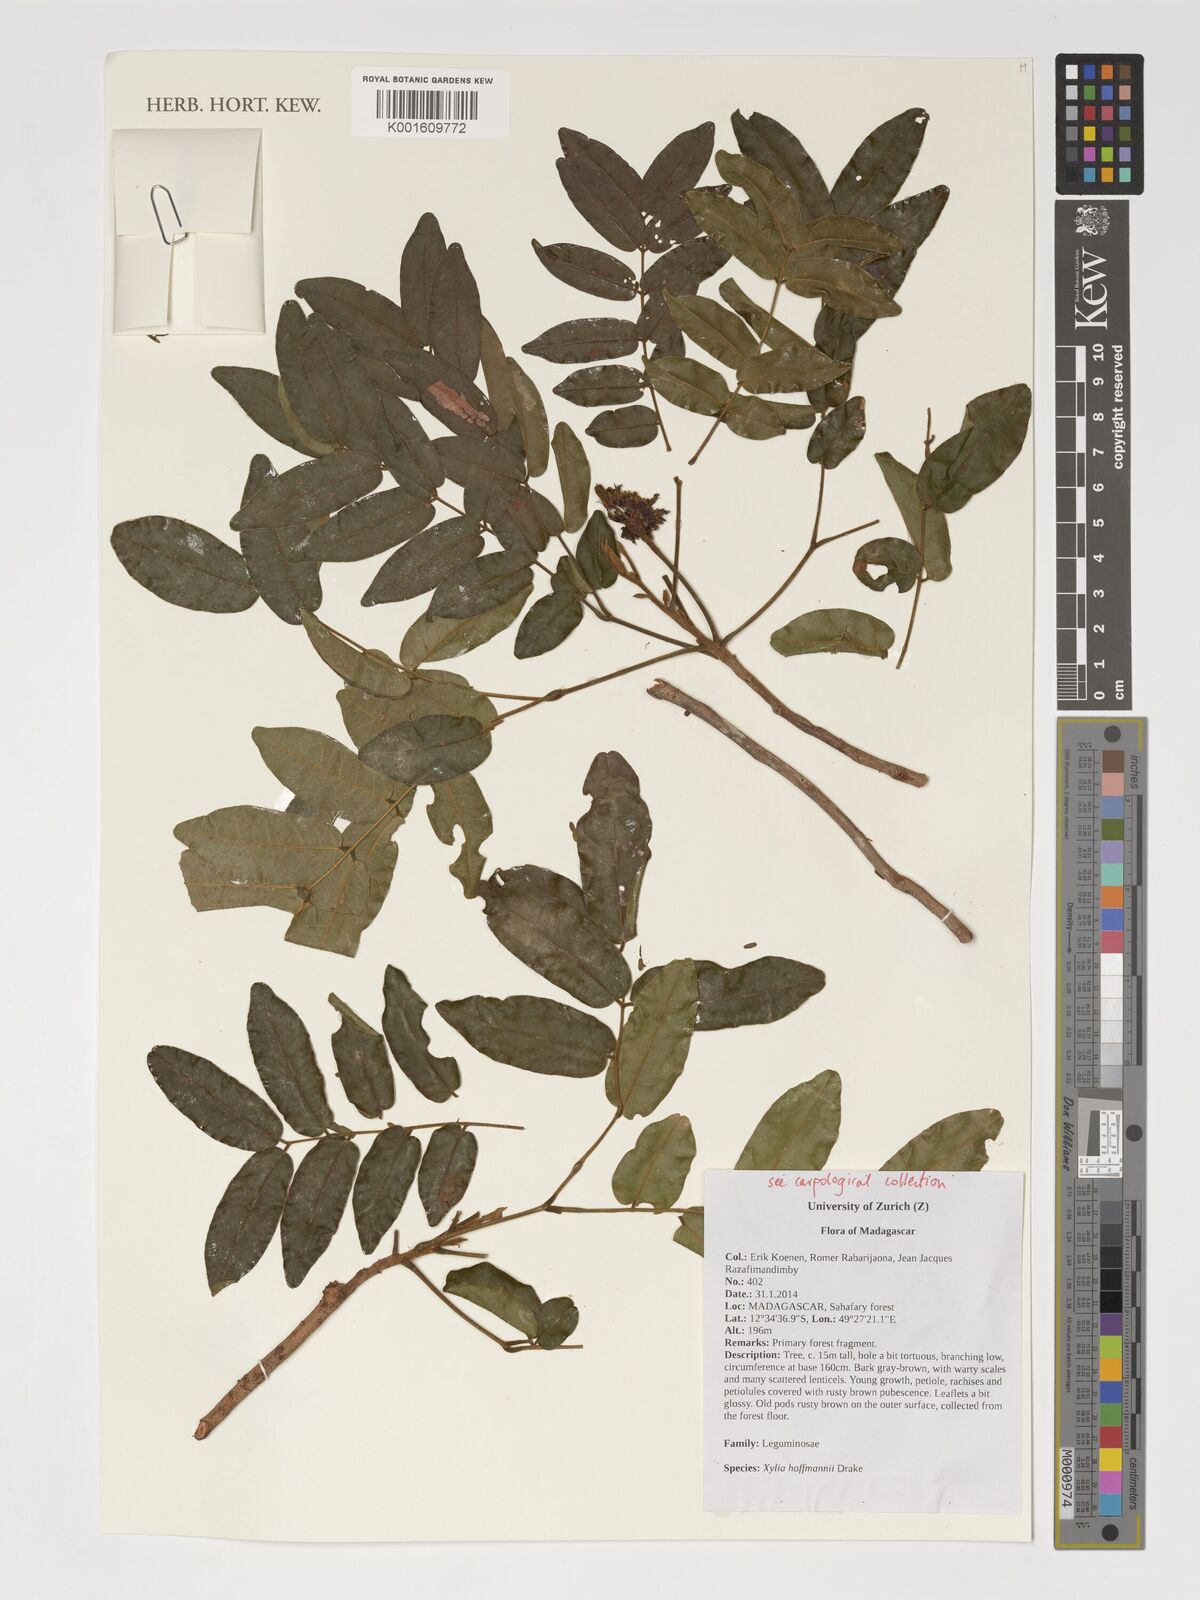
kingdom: Plantae
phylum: Tracheophyta
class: Magnoliopsida
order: Fabales
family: Fabaceae
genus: Xylia
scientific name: Xylia hoffmannii
